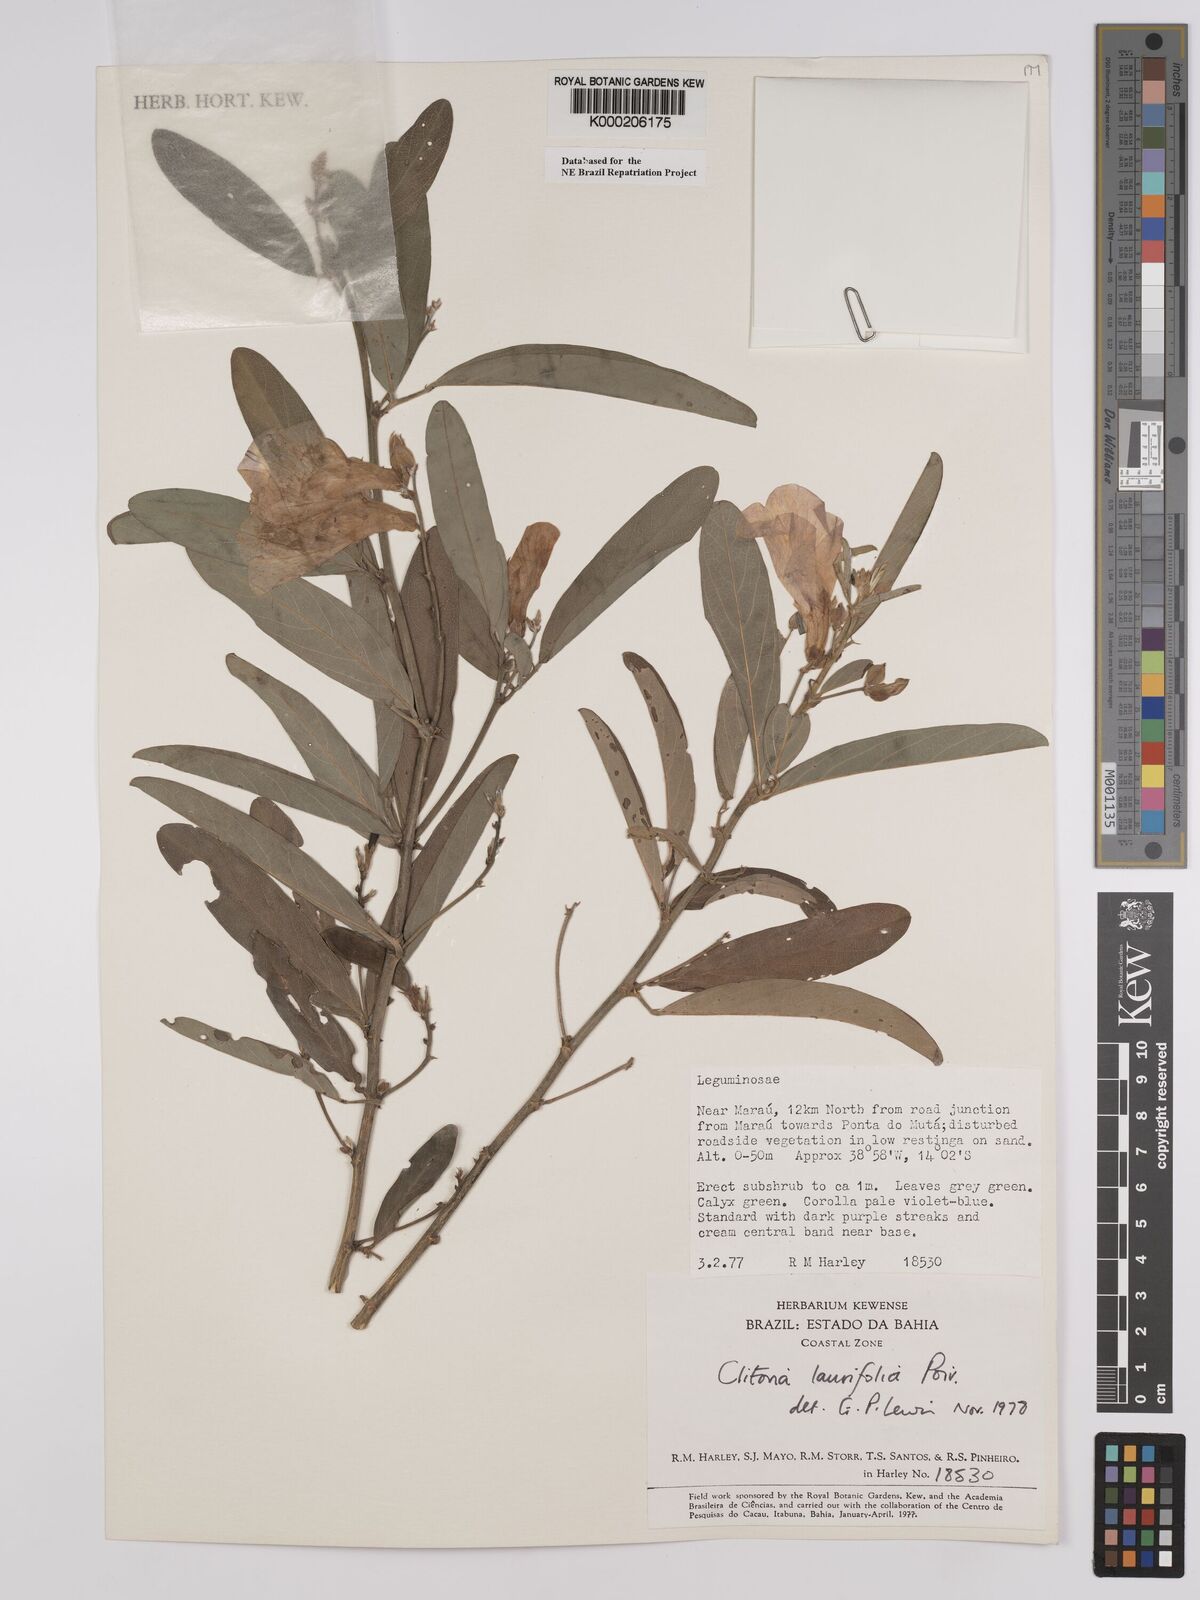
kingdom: Plantae
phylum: Tracheophyta
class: Magnoliopsida
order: Fabales
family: Fabaceae
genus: Clitoria
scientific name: Clitoria laurifolia
